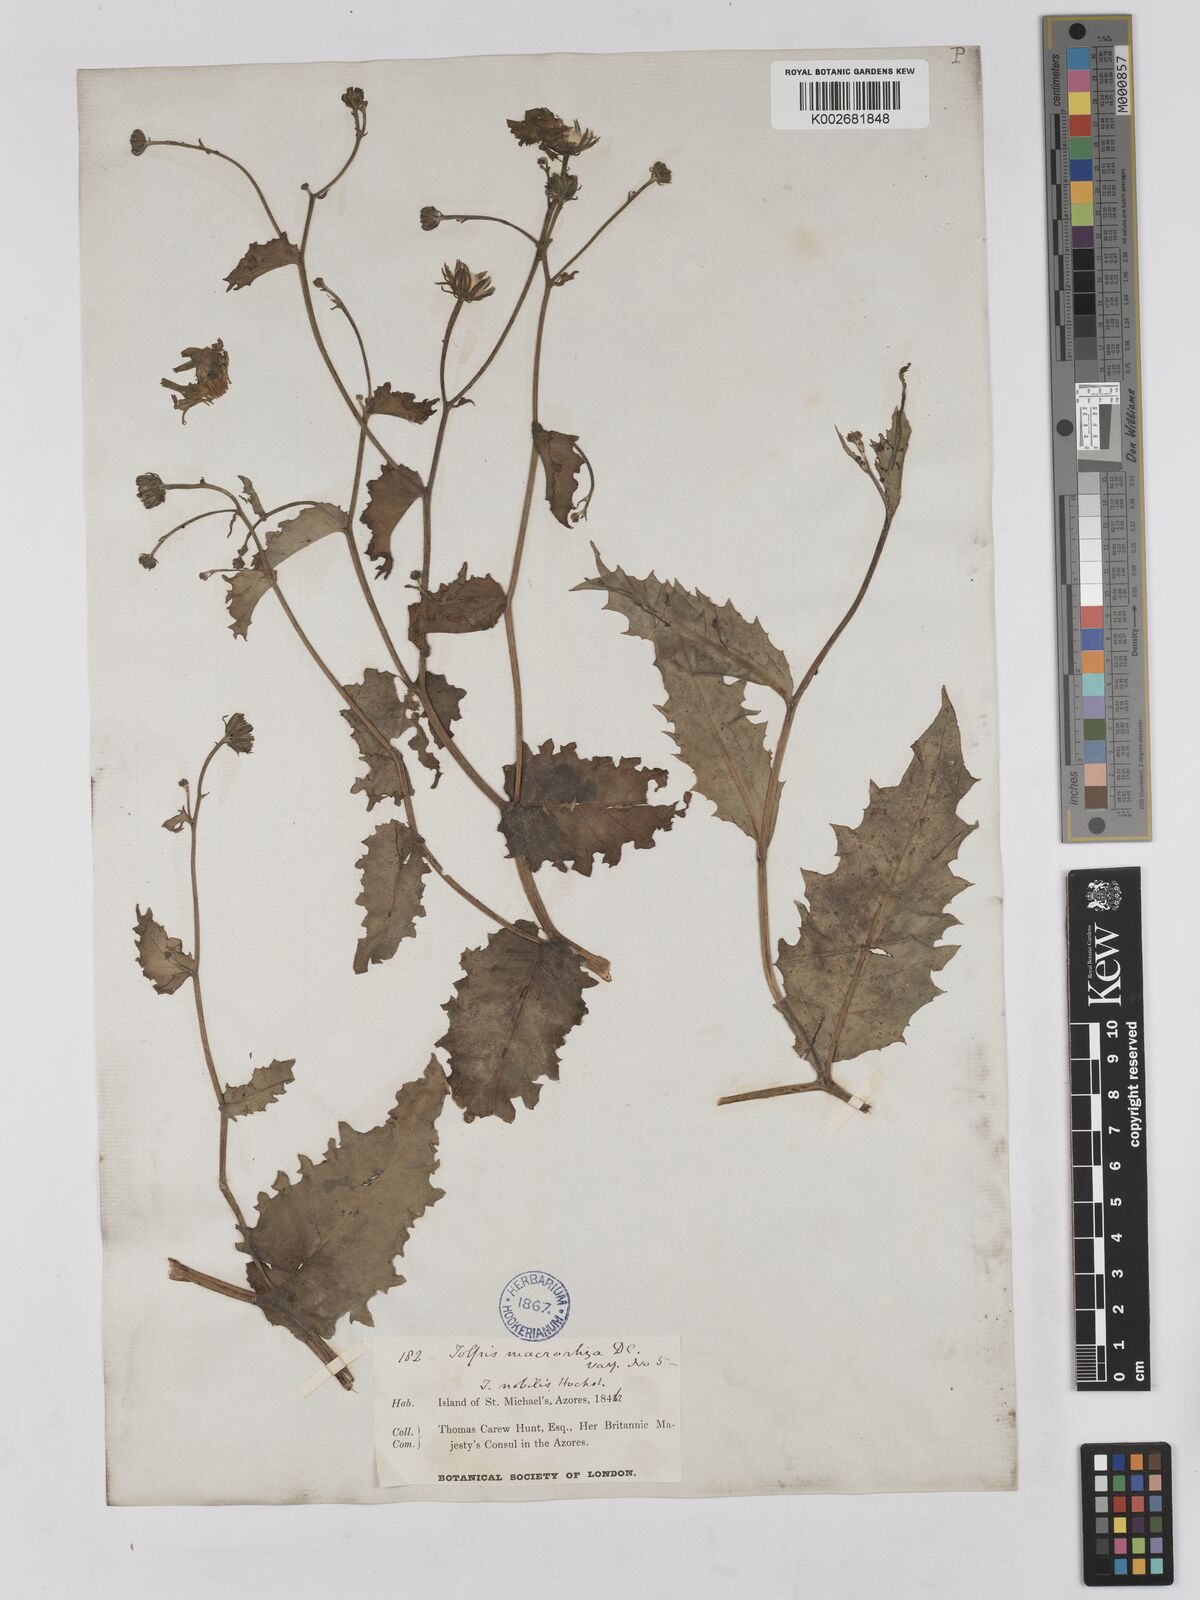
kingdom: Plantae
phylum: Tracheophyta
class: Magnoliopsida
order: Asterales
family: Asteraceae
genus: Tolpis
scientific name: Tolpis nobilis
